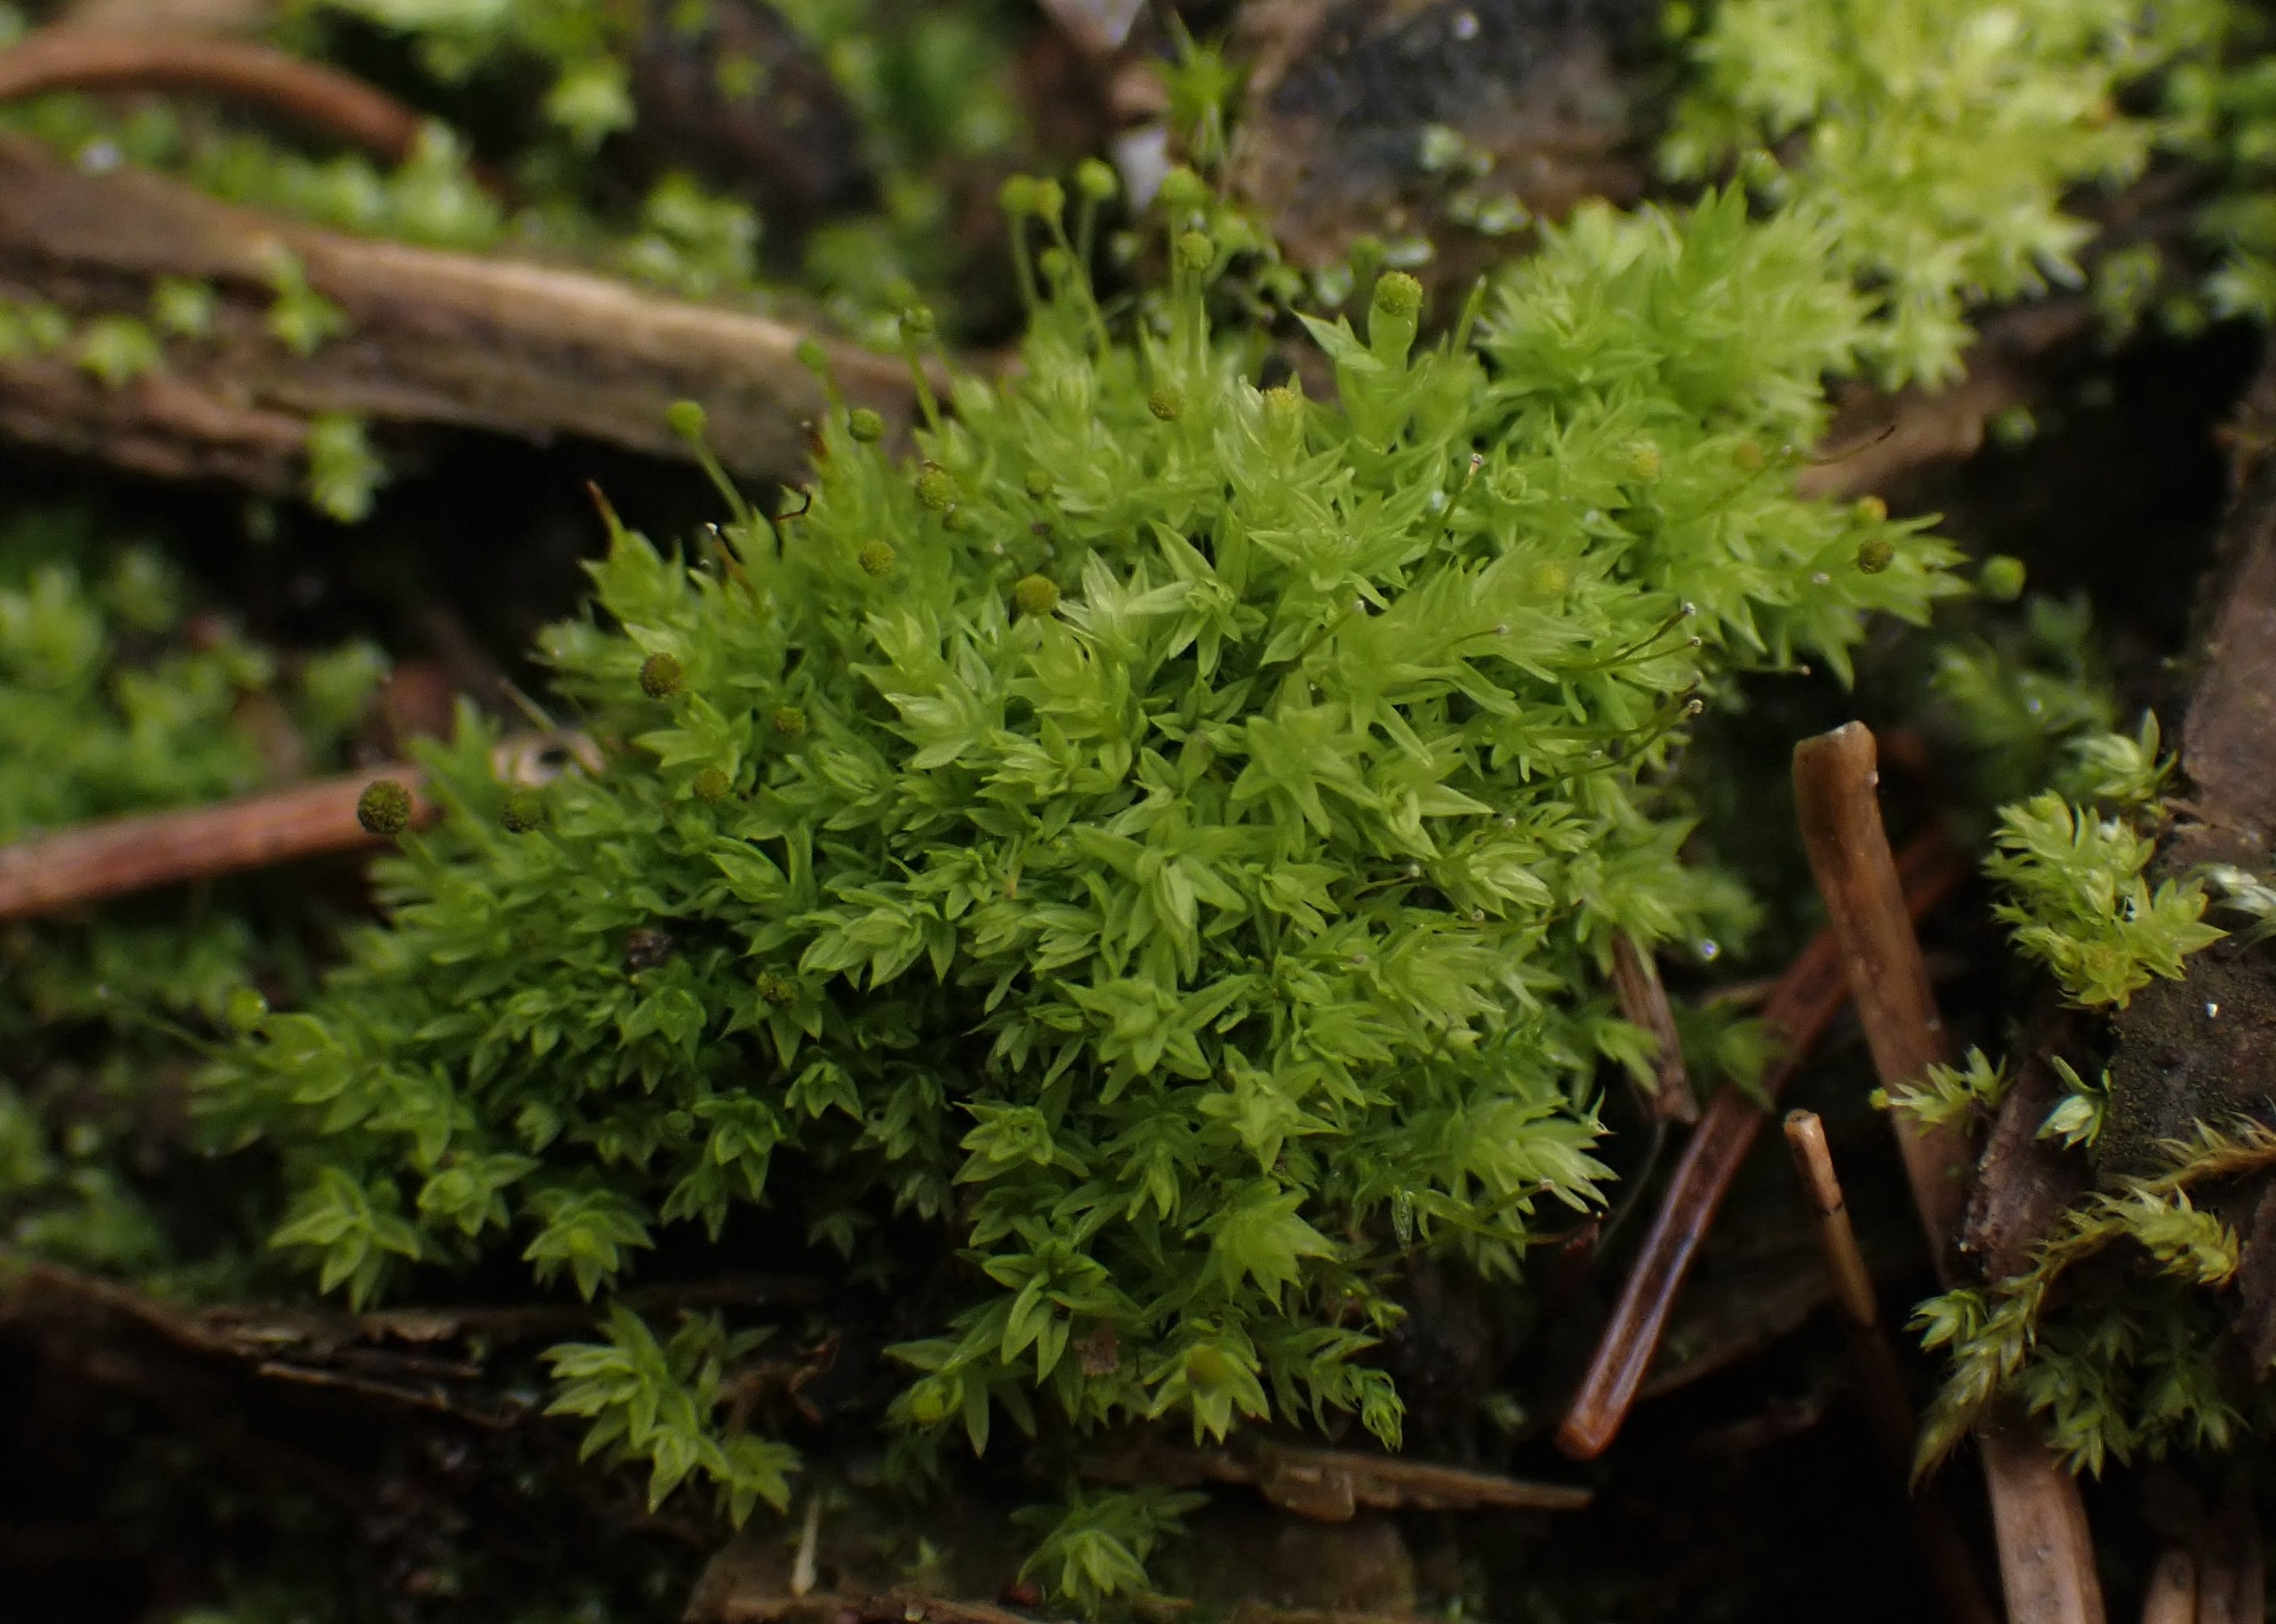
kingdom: Plantae
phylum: Bryophyta
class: Bryopsida
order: Aulacomniales
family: Aulacomniaceae
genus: Aulacomnium
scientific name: Aulacomnium androgynum
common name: Kugle-filtmos
